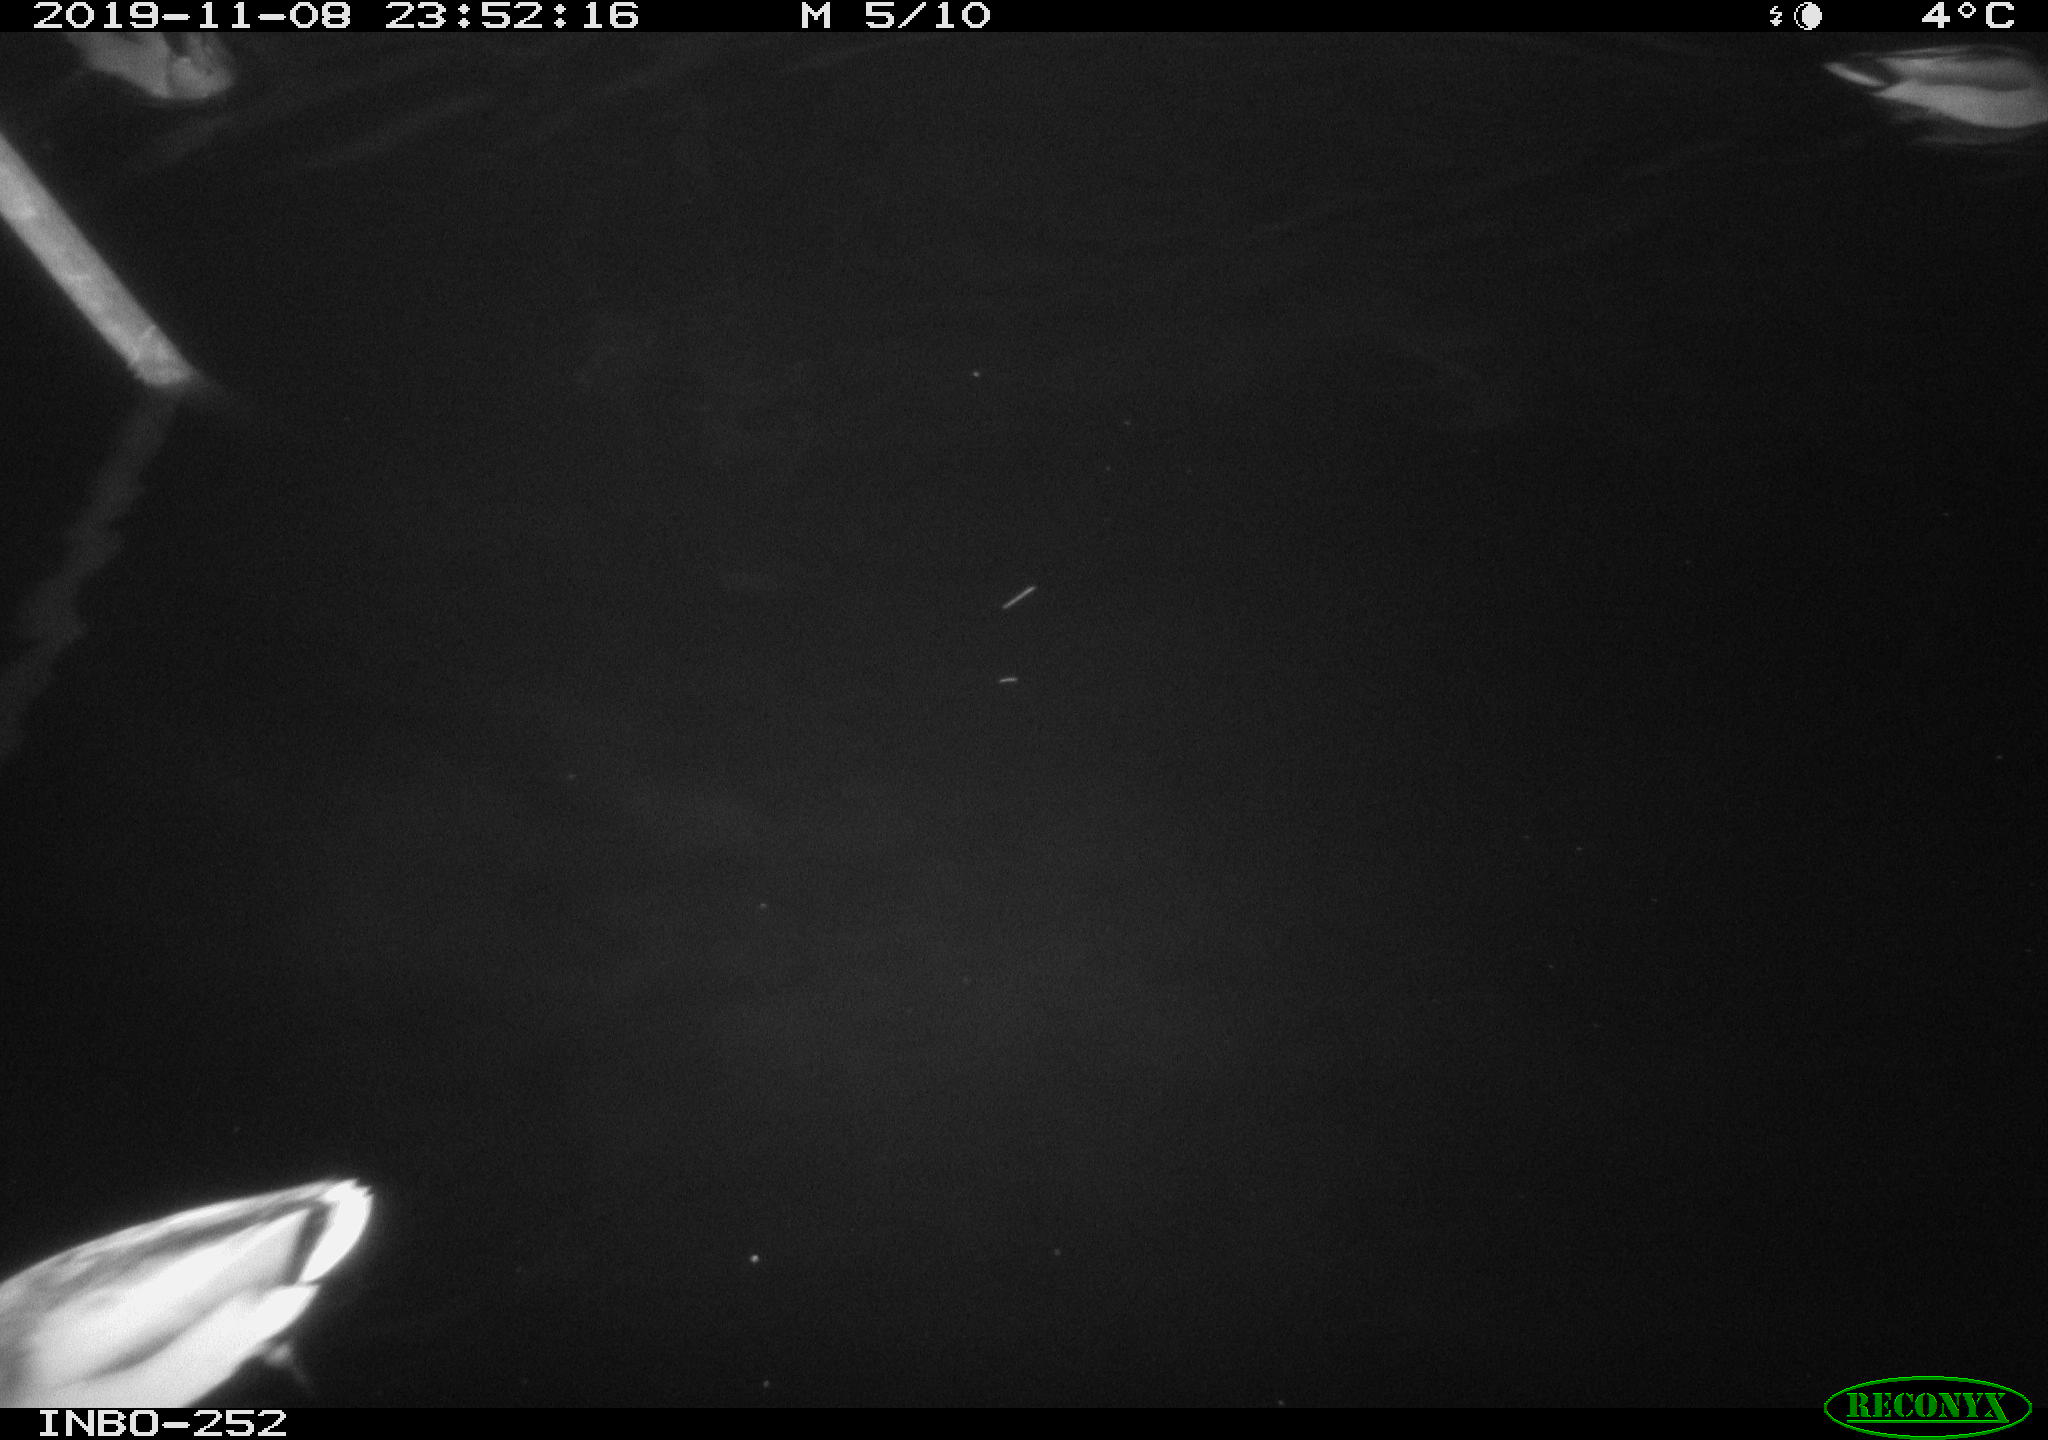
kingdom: Animalia
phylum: Chordata
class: Aves
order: Anseriformes
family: Anatidae
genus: Anas
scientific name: Anas platyrhynchos
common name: Mallard
